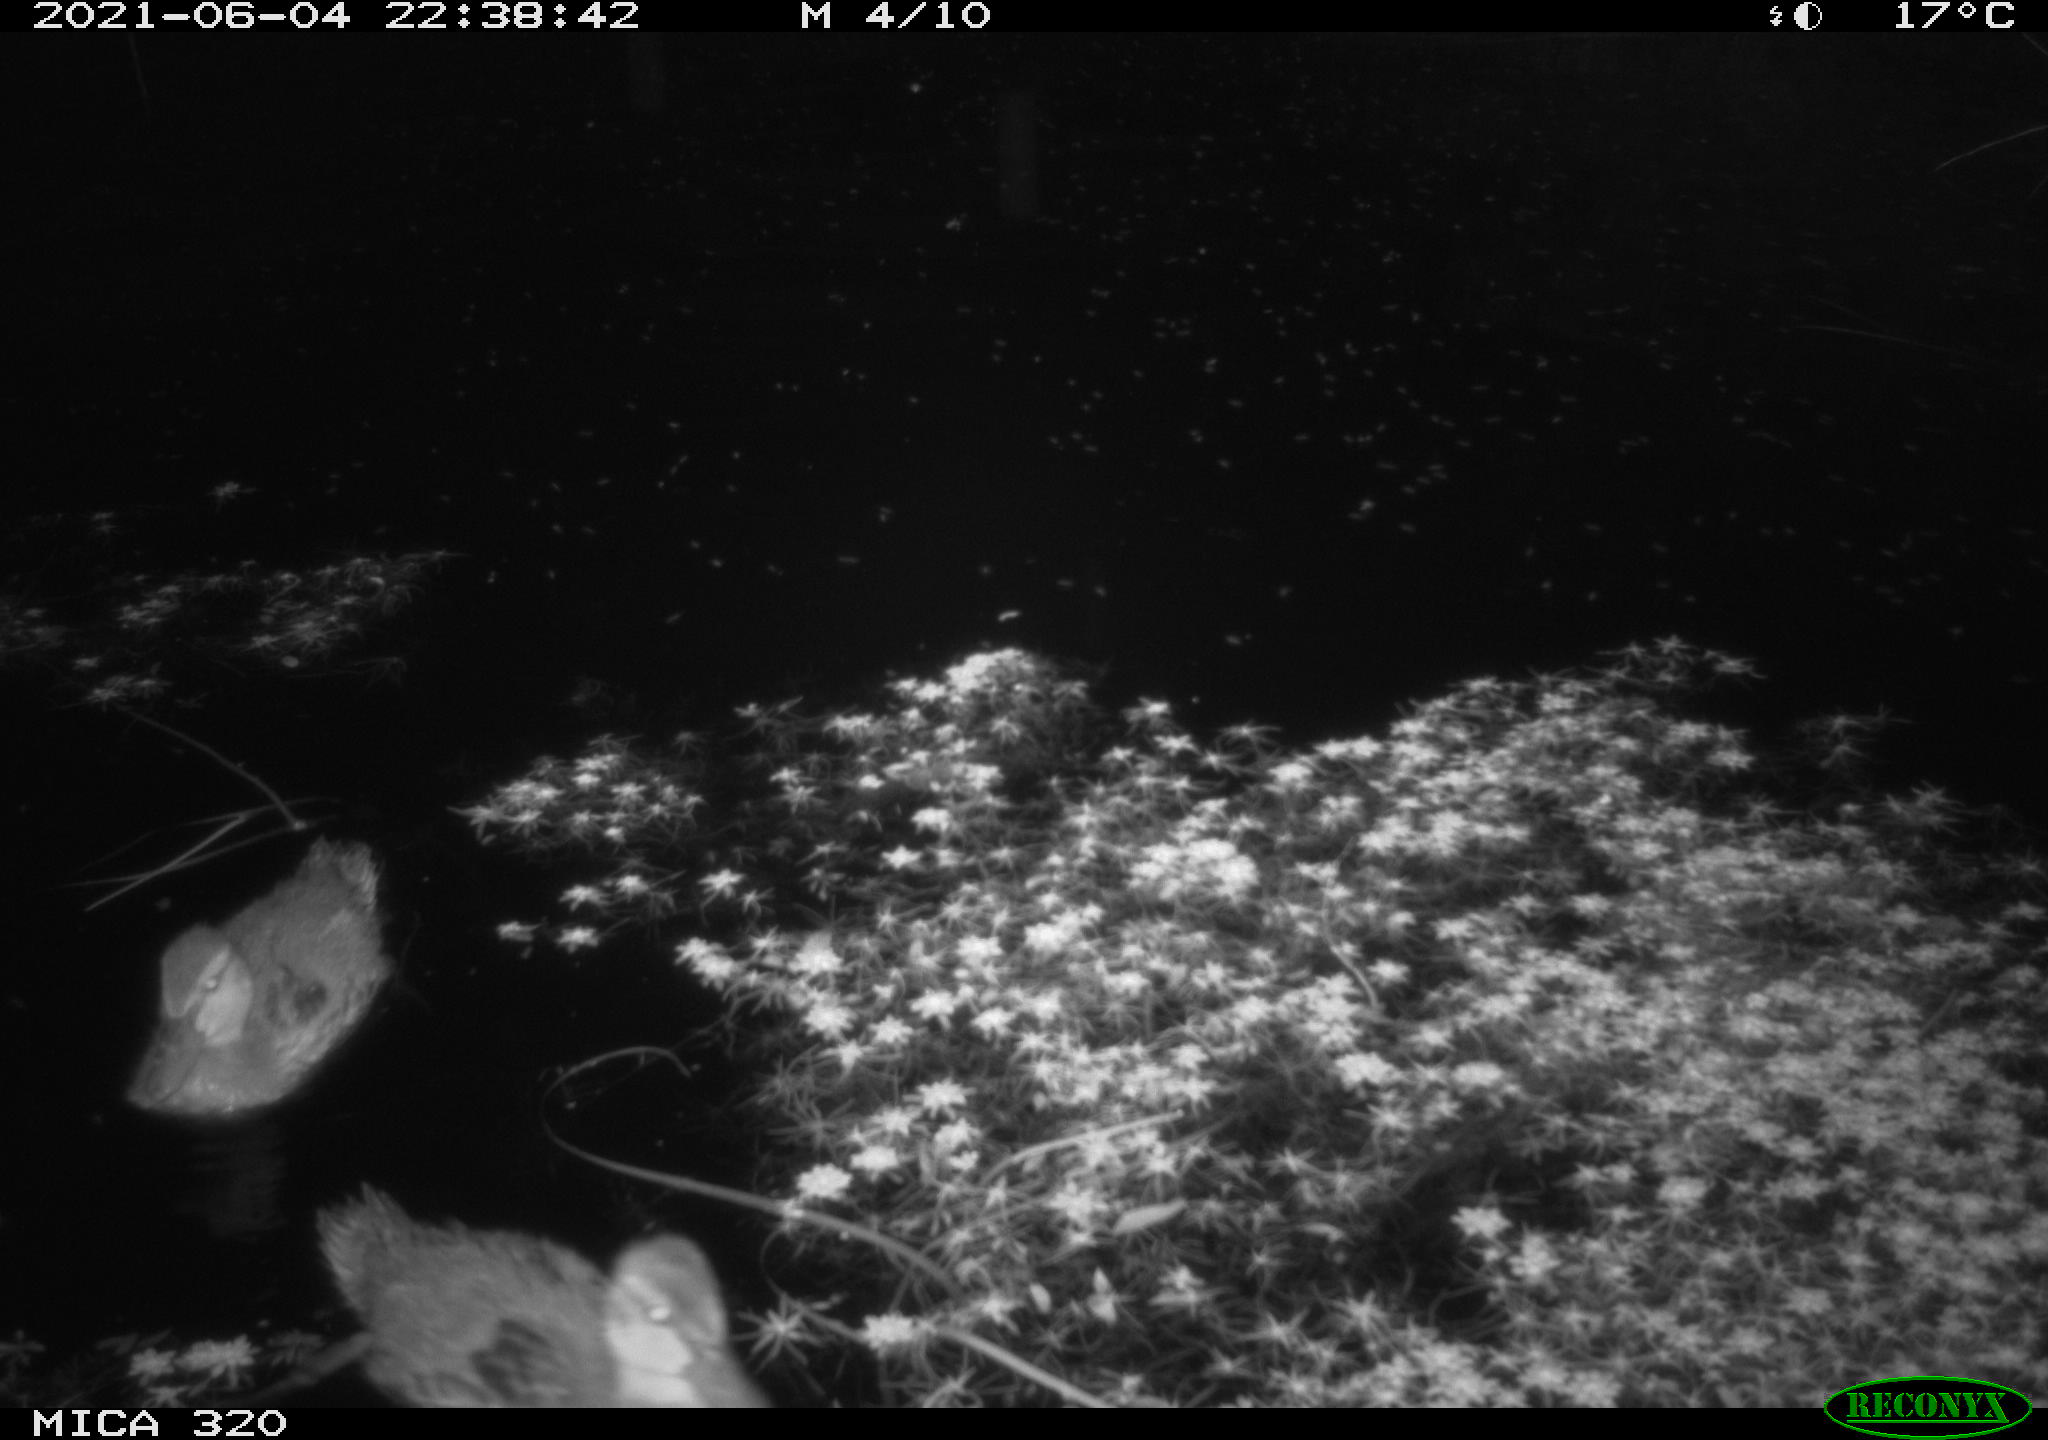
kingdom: Animalia
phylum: Chordata
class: Aves
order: Anseriformes
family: Anatidae
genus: Anas
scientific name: Anas platyrhynchos
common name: Mallard
